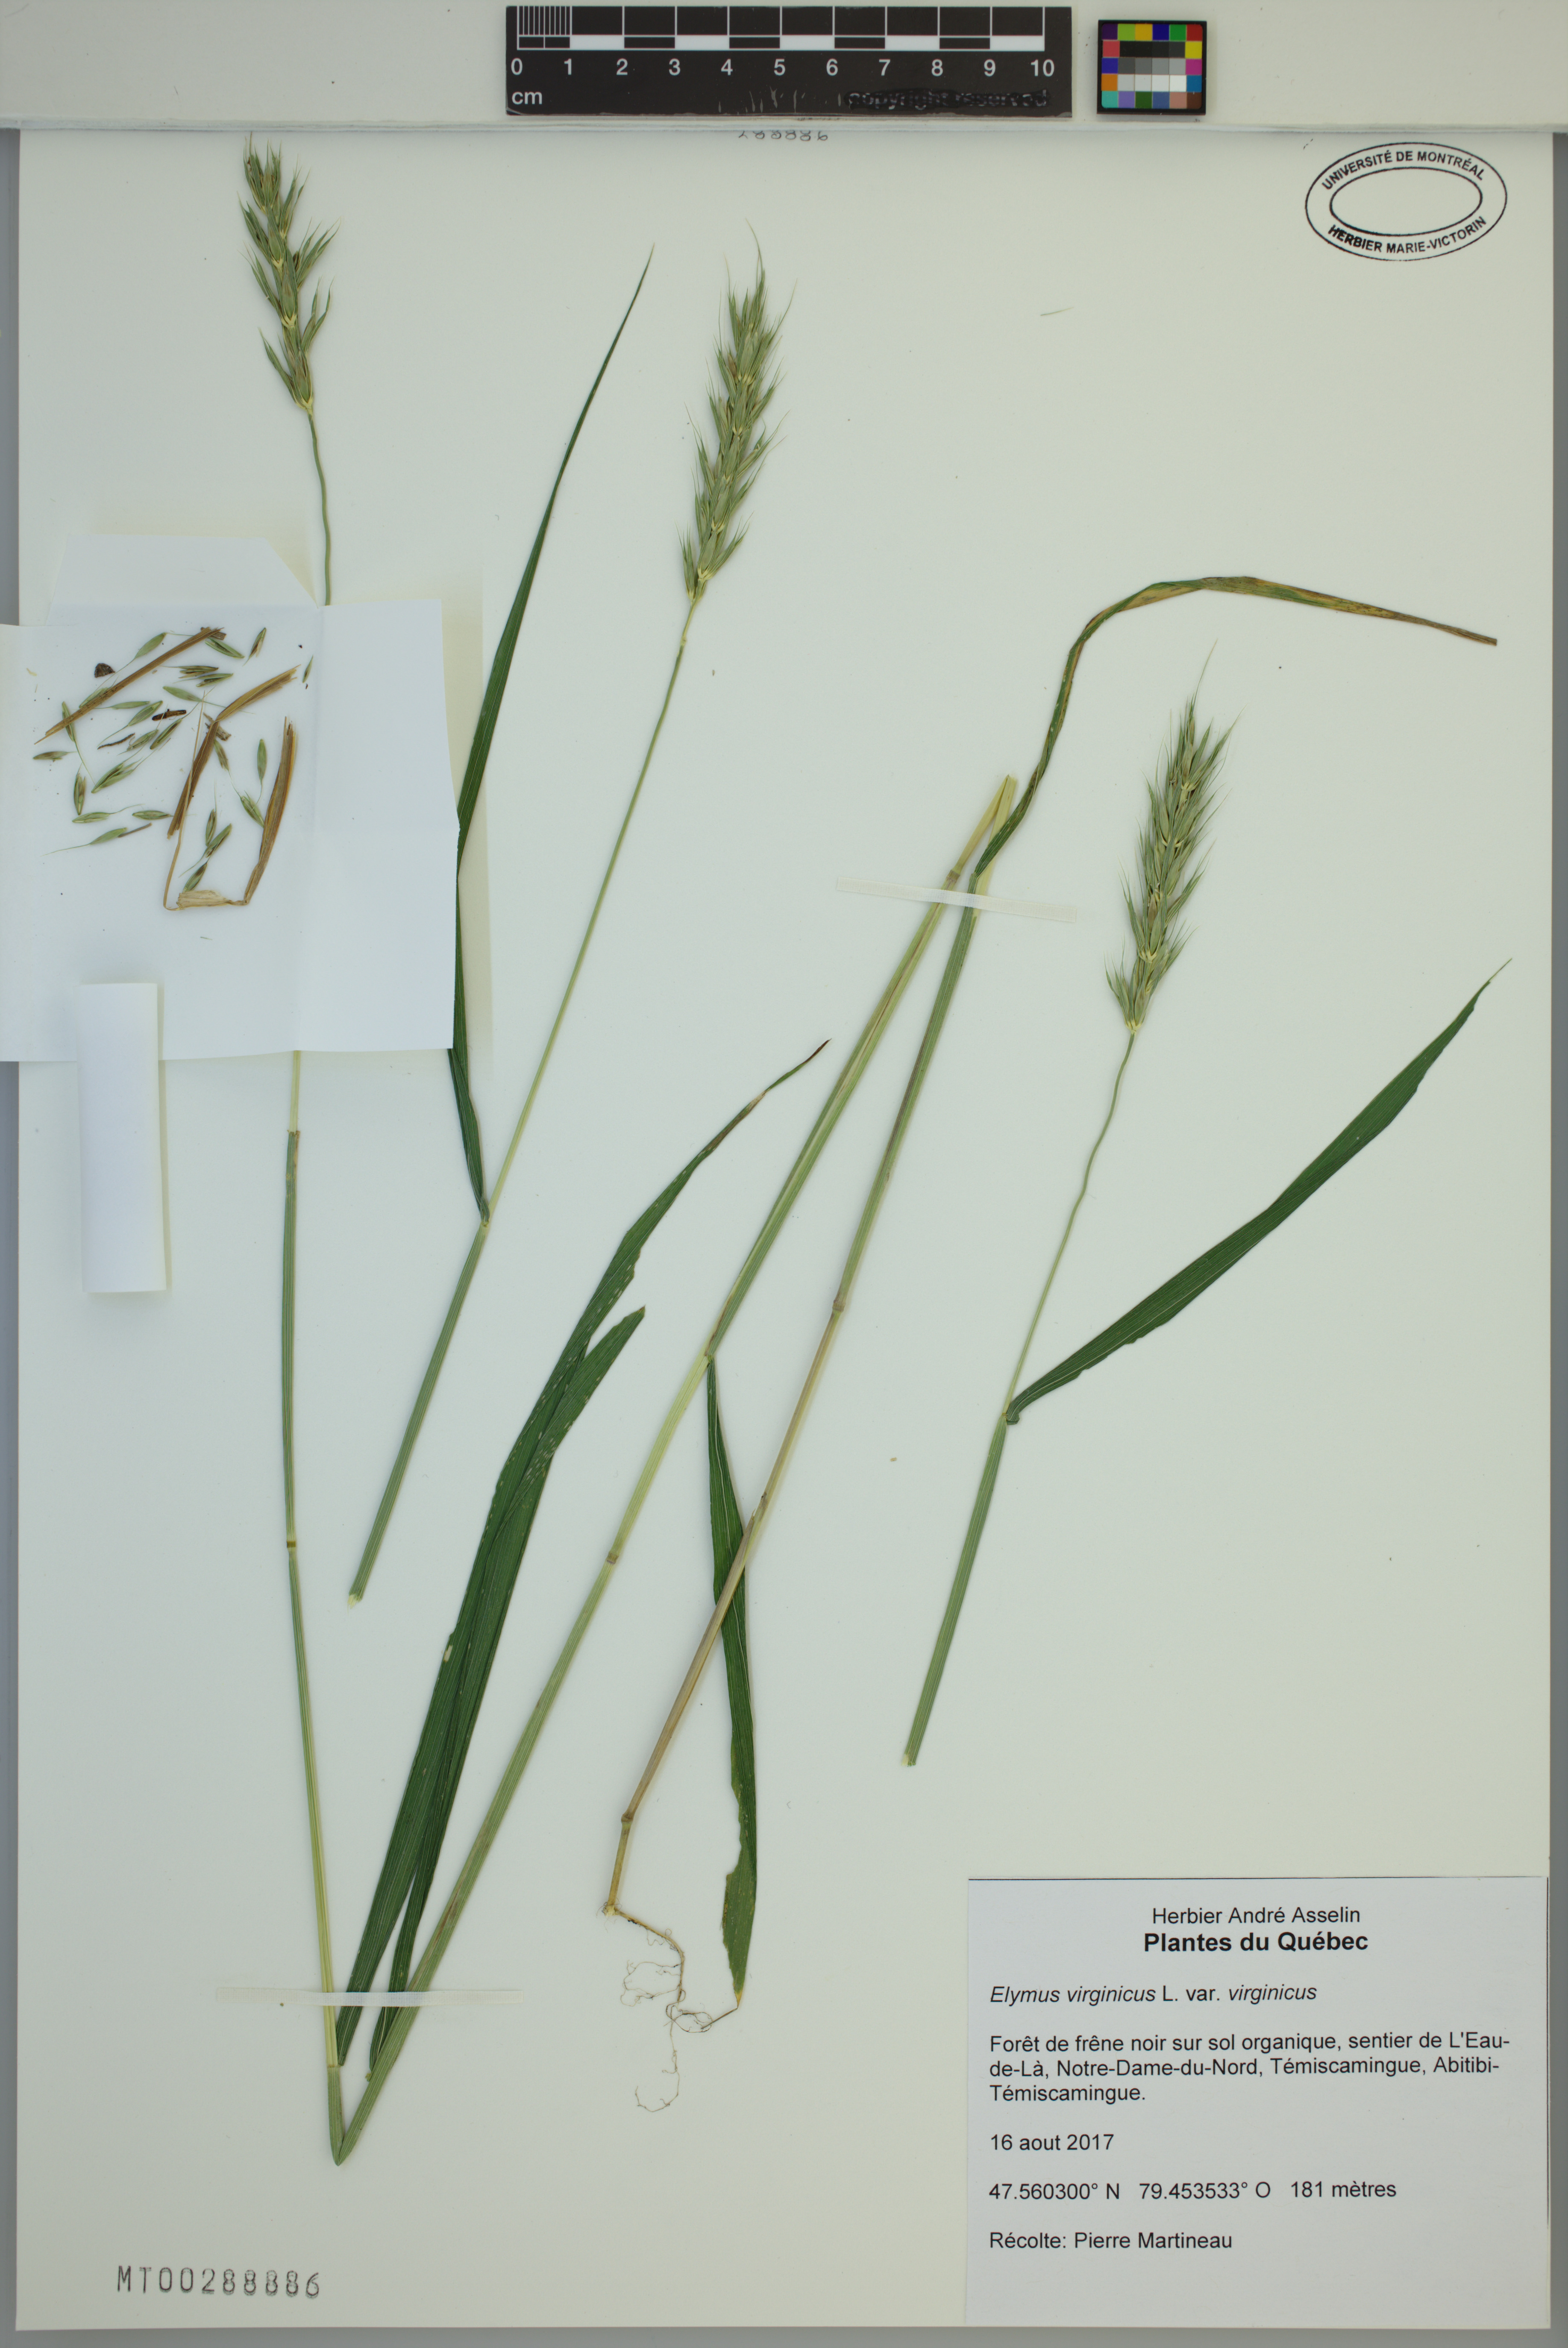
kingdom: Plantae
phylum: Tracheophyta
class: Liliopsida
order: Poales
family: Poaceae
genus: Elymus
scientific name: Elymus virginicus
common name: Common eastern wildrye
